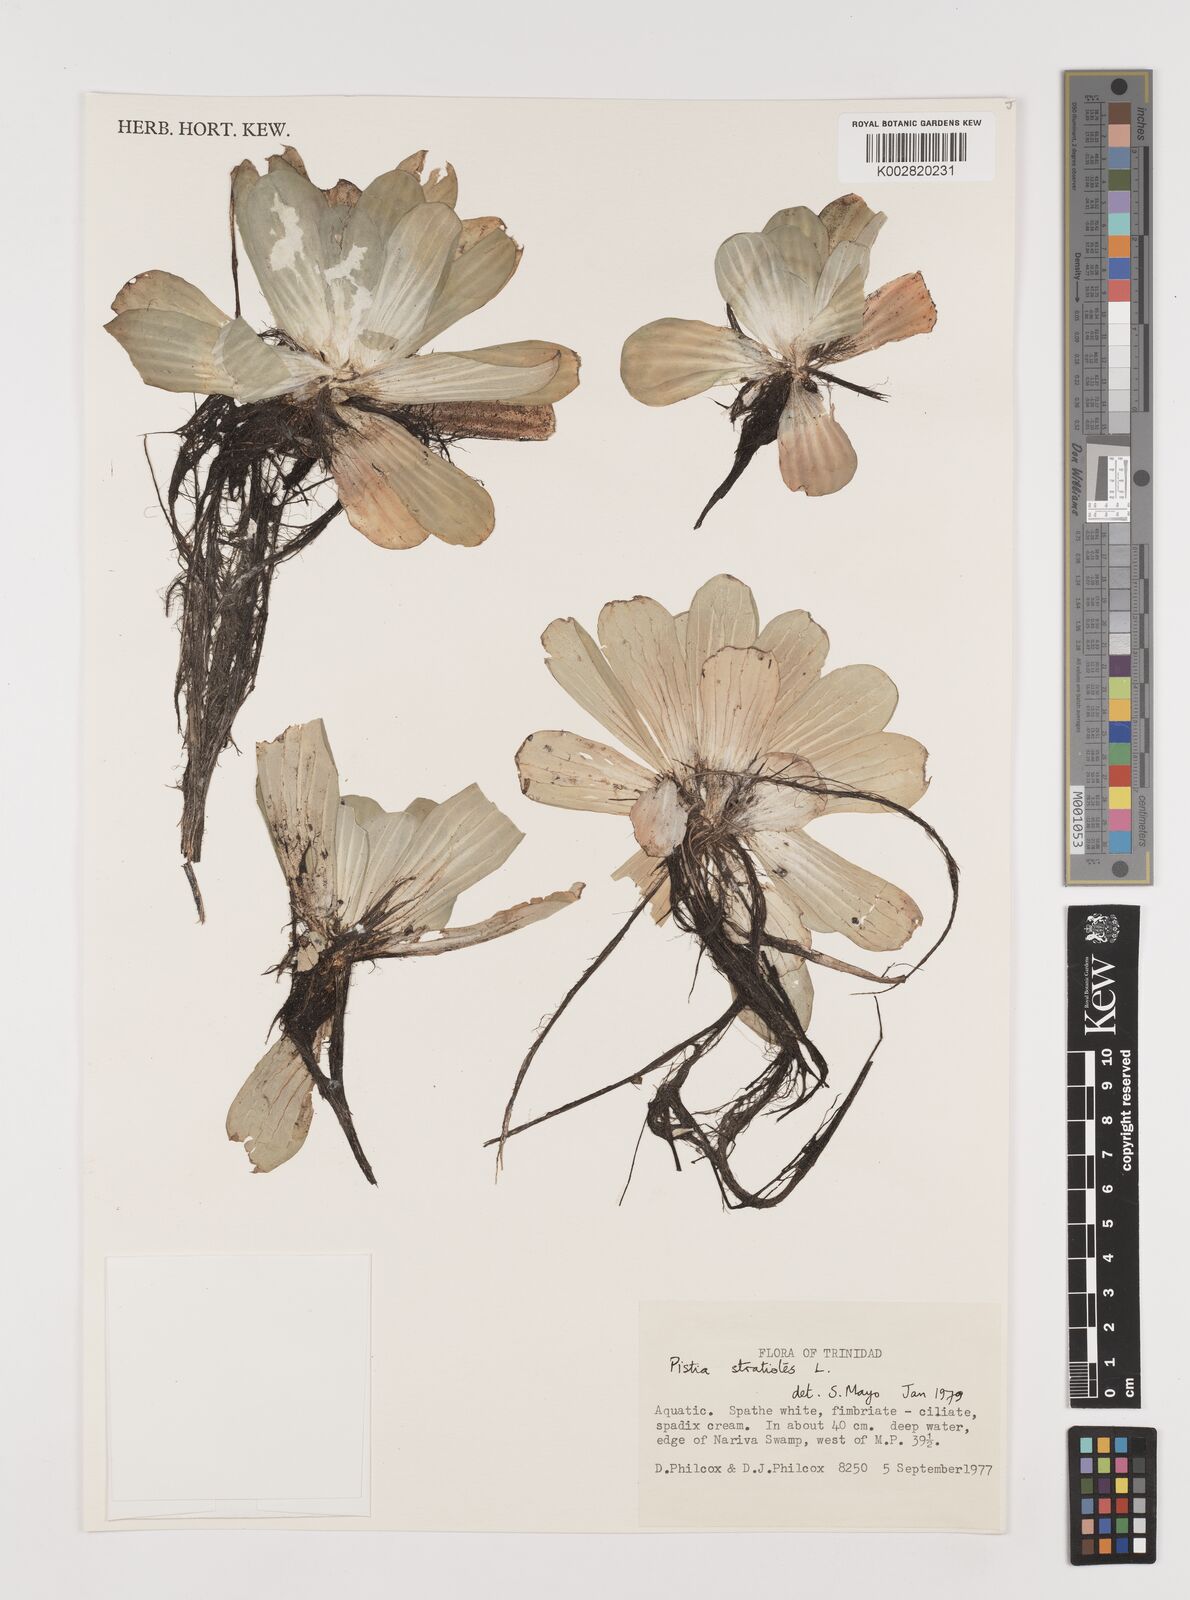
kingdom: Plantae
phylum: Tracheophyta
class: Liliopsida
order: Alismatales
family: Araceae
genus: Pistia
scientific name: Pistia stratiotes
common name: Water lettuce
